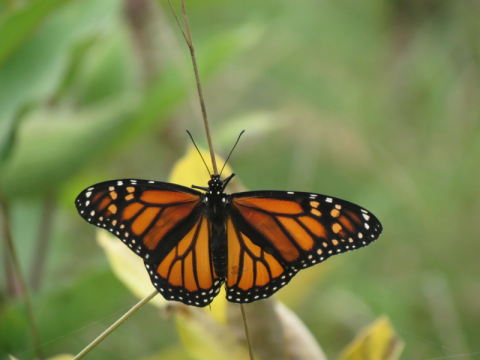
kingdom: Animalia
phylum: Arthropoda
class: Insecta
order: Lepidoptera
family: Nymphalidae
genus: Danaus
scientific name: Danaus plexippus
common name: Monarch
